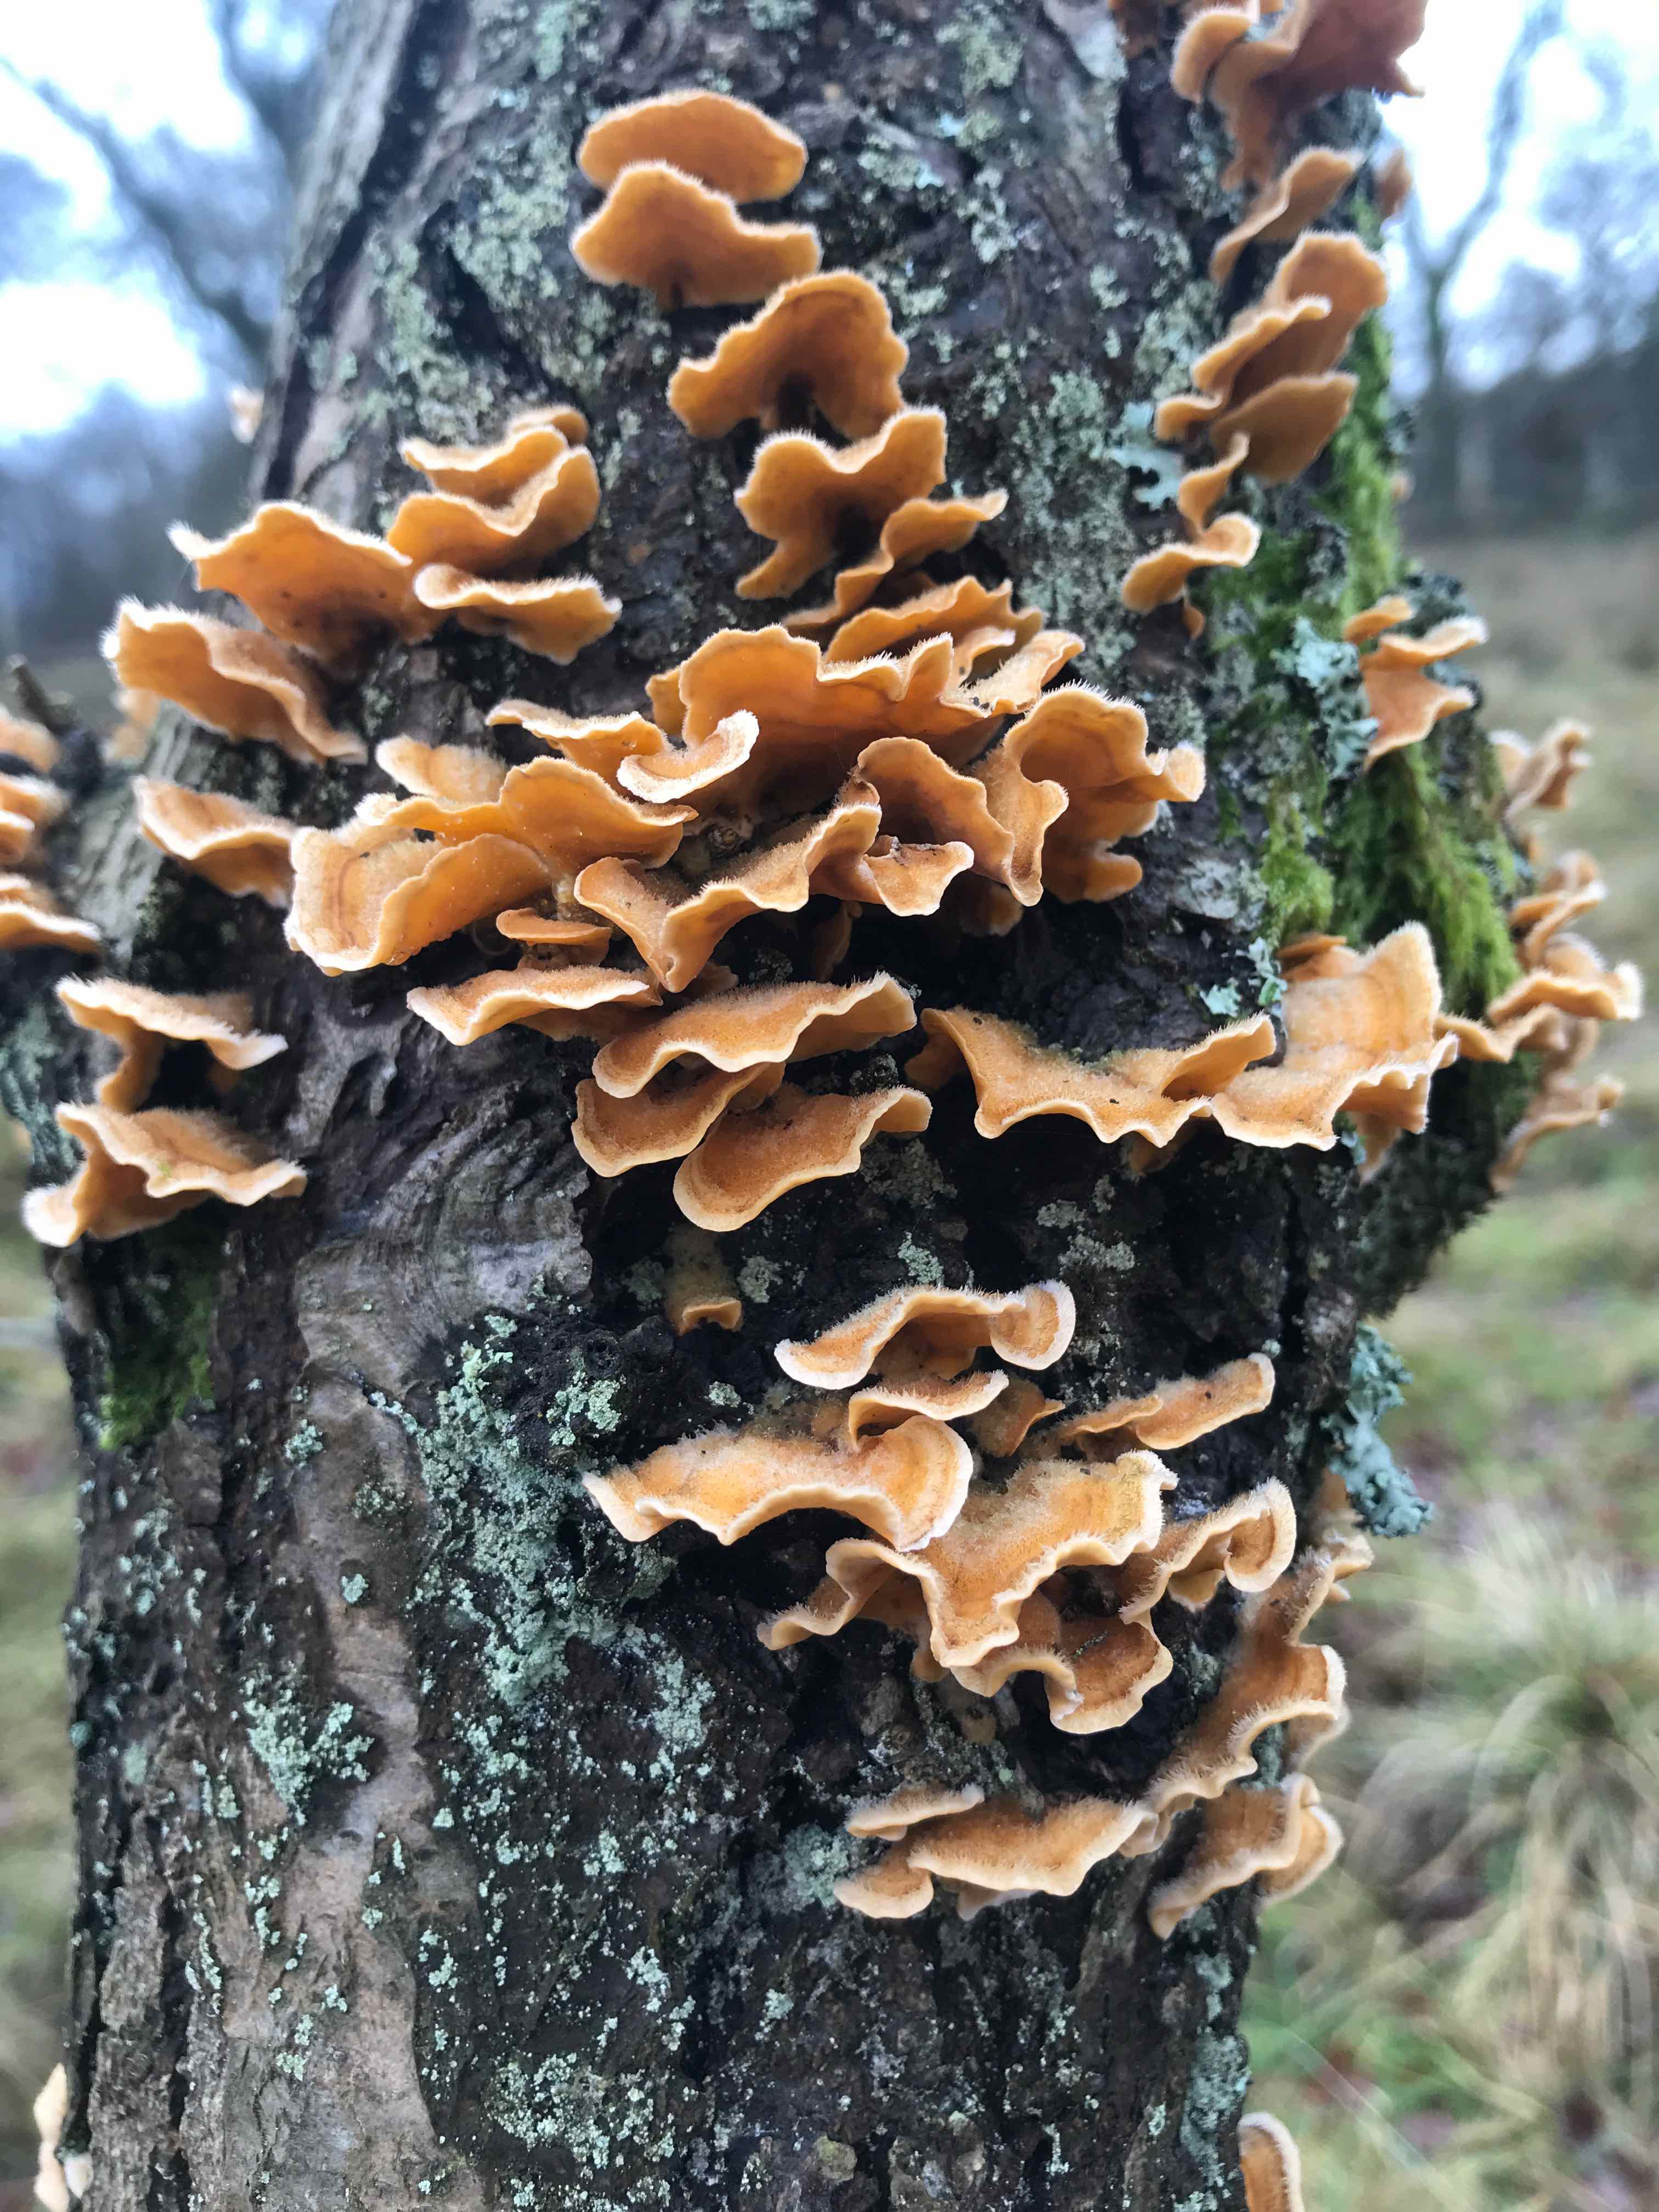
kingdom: Fungi
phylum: Basidiomycota
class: Agaricomycetes
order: Russulales
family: Stereaceae
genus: Stereum
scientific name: Stereum hirsutum
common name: håret lædersvamp
